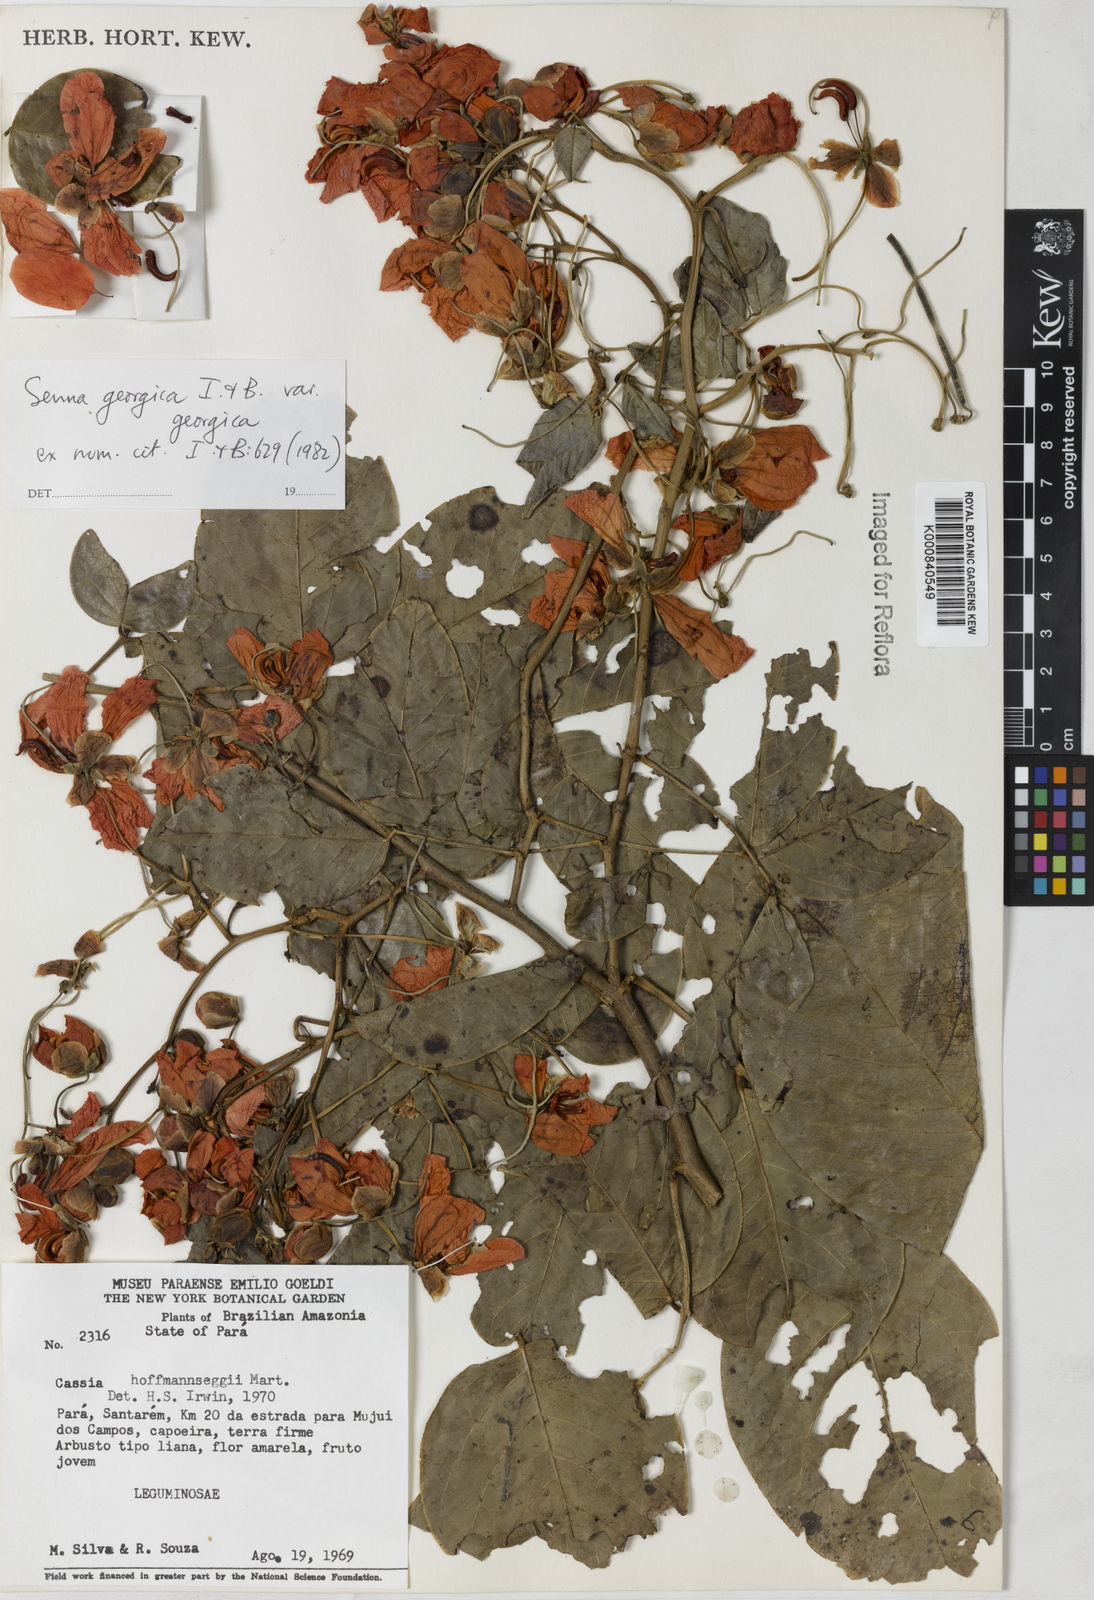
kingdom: Plantae
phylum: Tracheophyta
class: Magnoliopsida
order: Fabales
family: Fabaceae
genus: Senna
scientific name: Senna georgica
